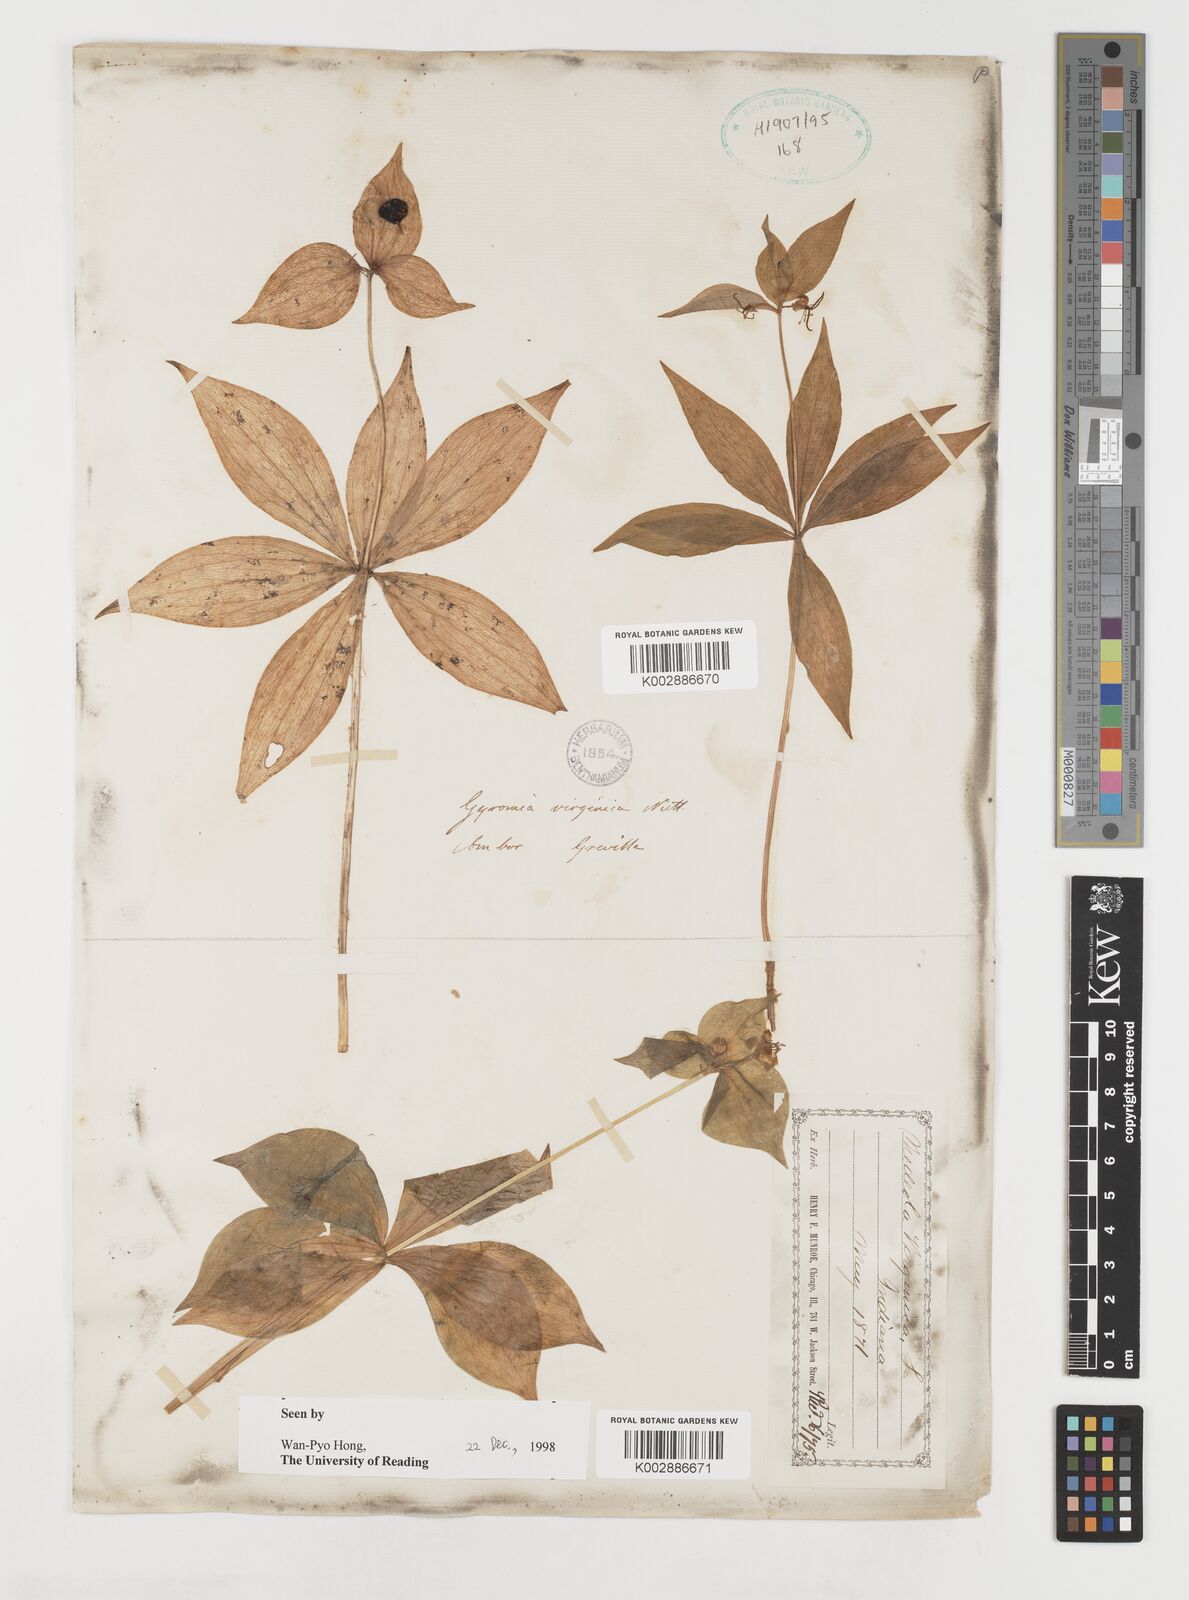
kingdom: Plantae
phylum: Tracheophyta
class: Liliopsida
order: Liliales
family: Liliaceae
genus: Medeola
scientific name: Medeola virginiana
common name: Indian cucumber-root
